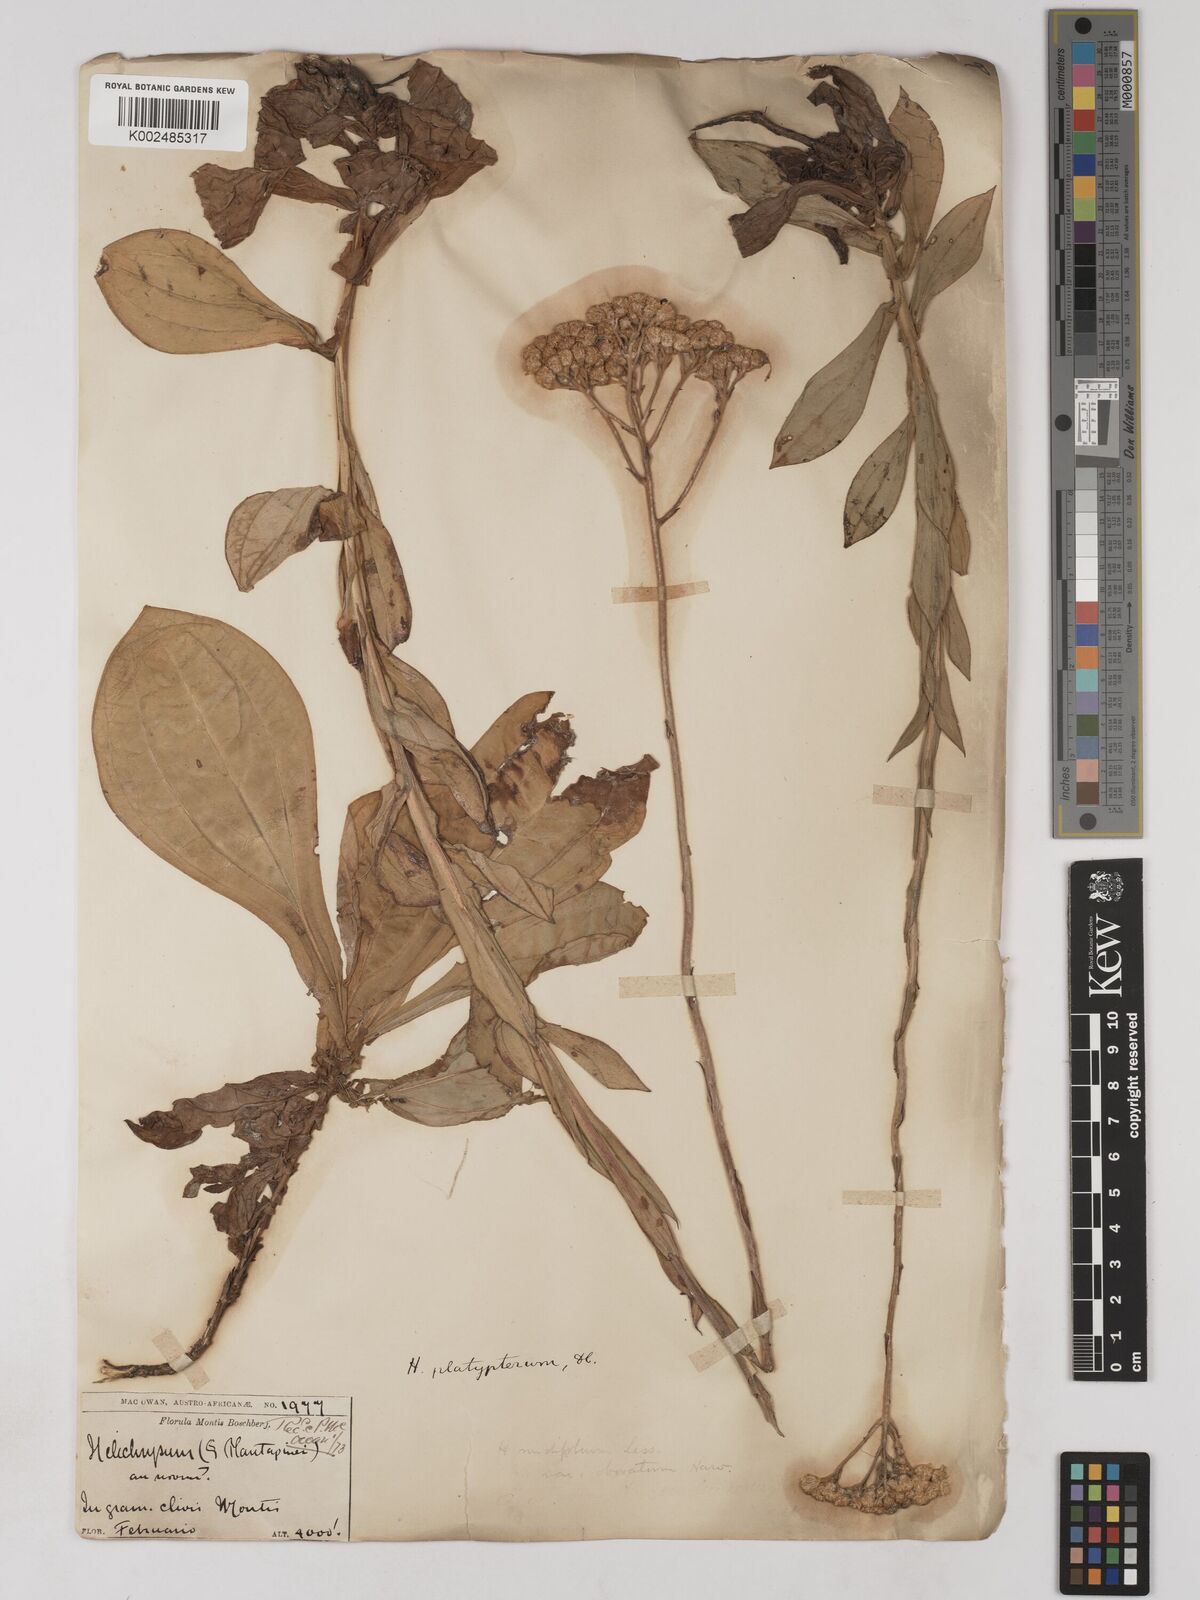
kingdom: Plantae
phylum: Tracheophyta
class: Magnoliopsida
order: Asterales
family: Asteraceae
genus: Helichrysum
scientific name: Helichrysum platypterum
